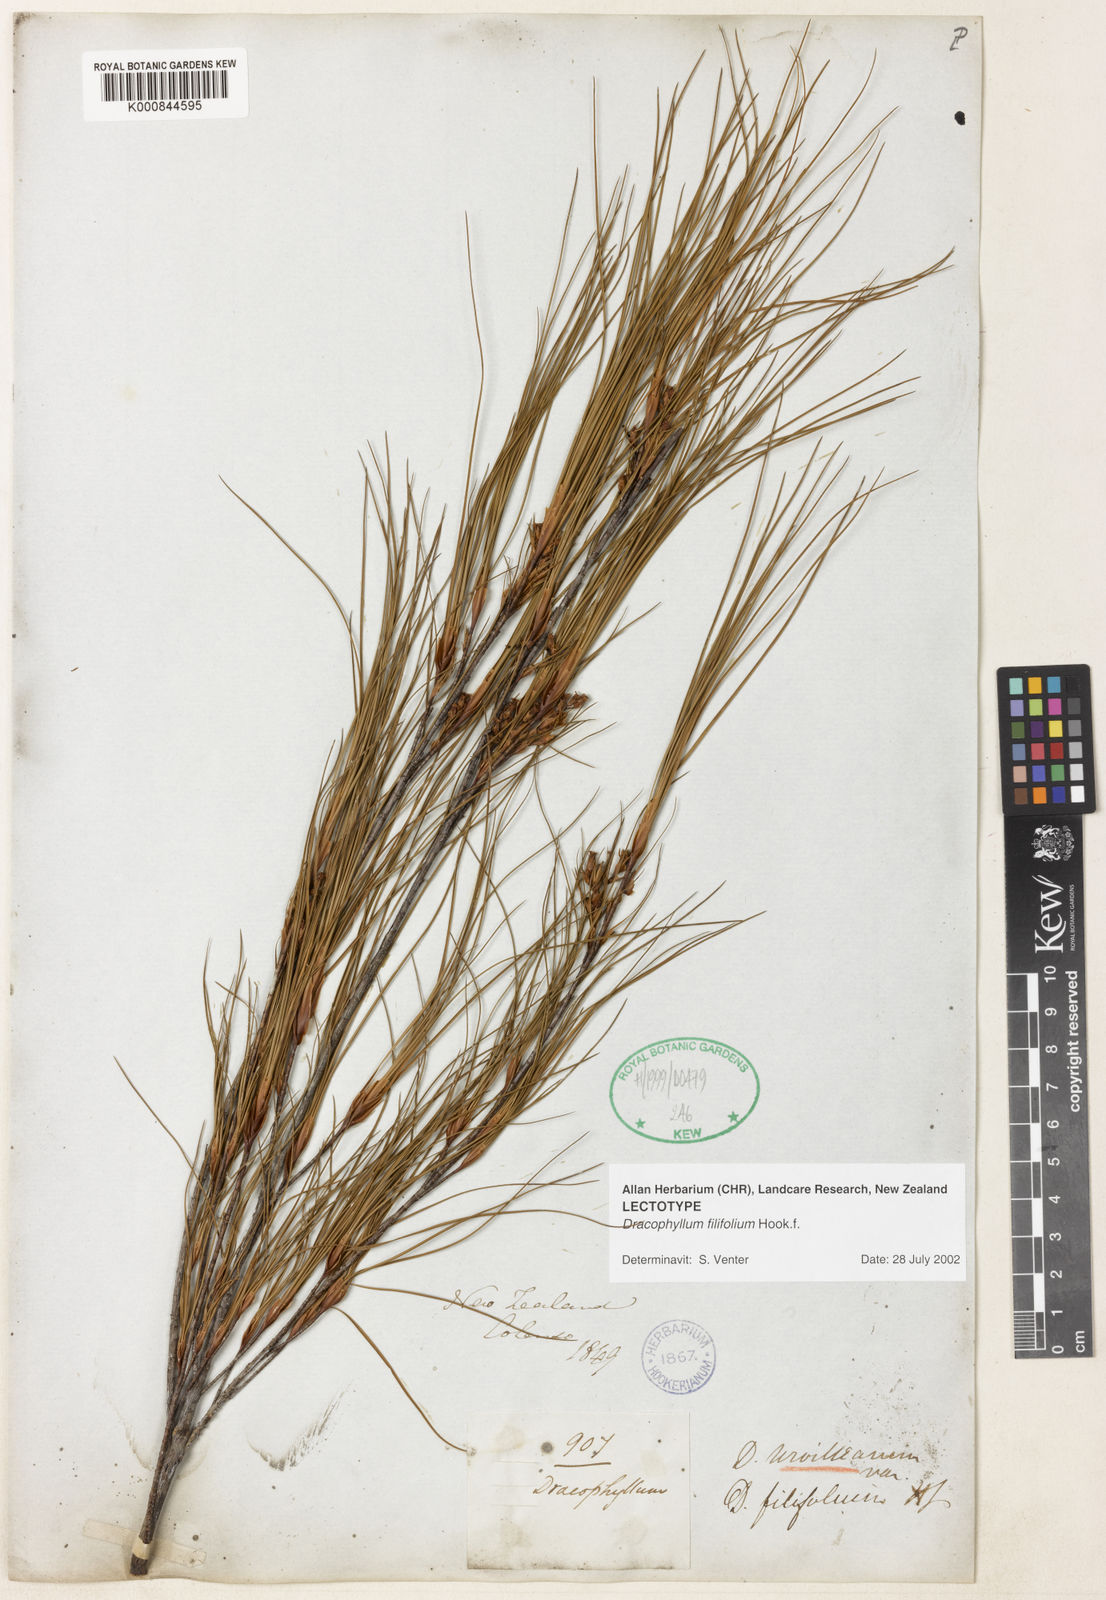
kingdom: Plantae
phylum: Tracheophyta
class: Magnoliopsida
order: Ericales
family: Ericaceae
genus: Dracophyllum
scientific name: Dracophyllum filifolium
